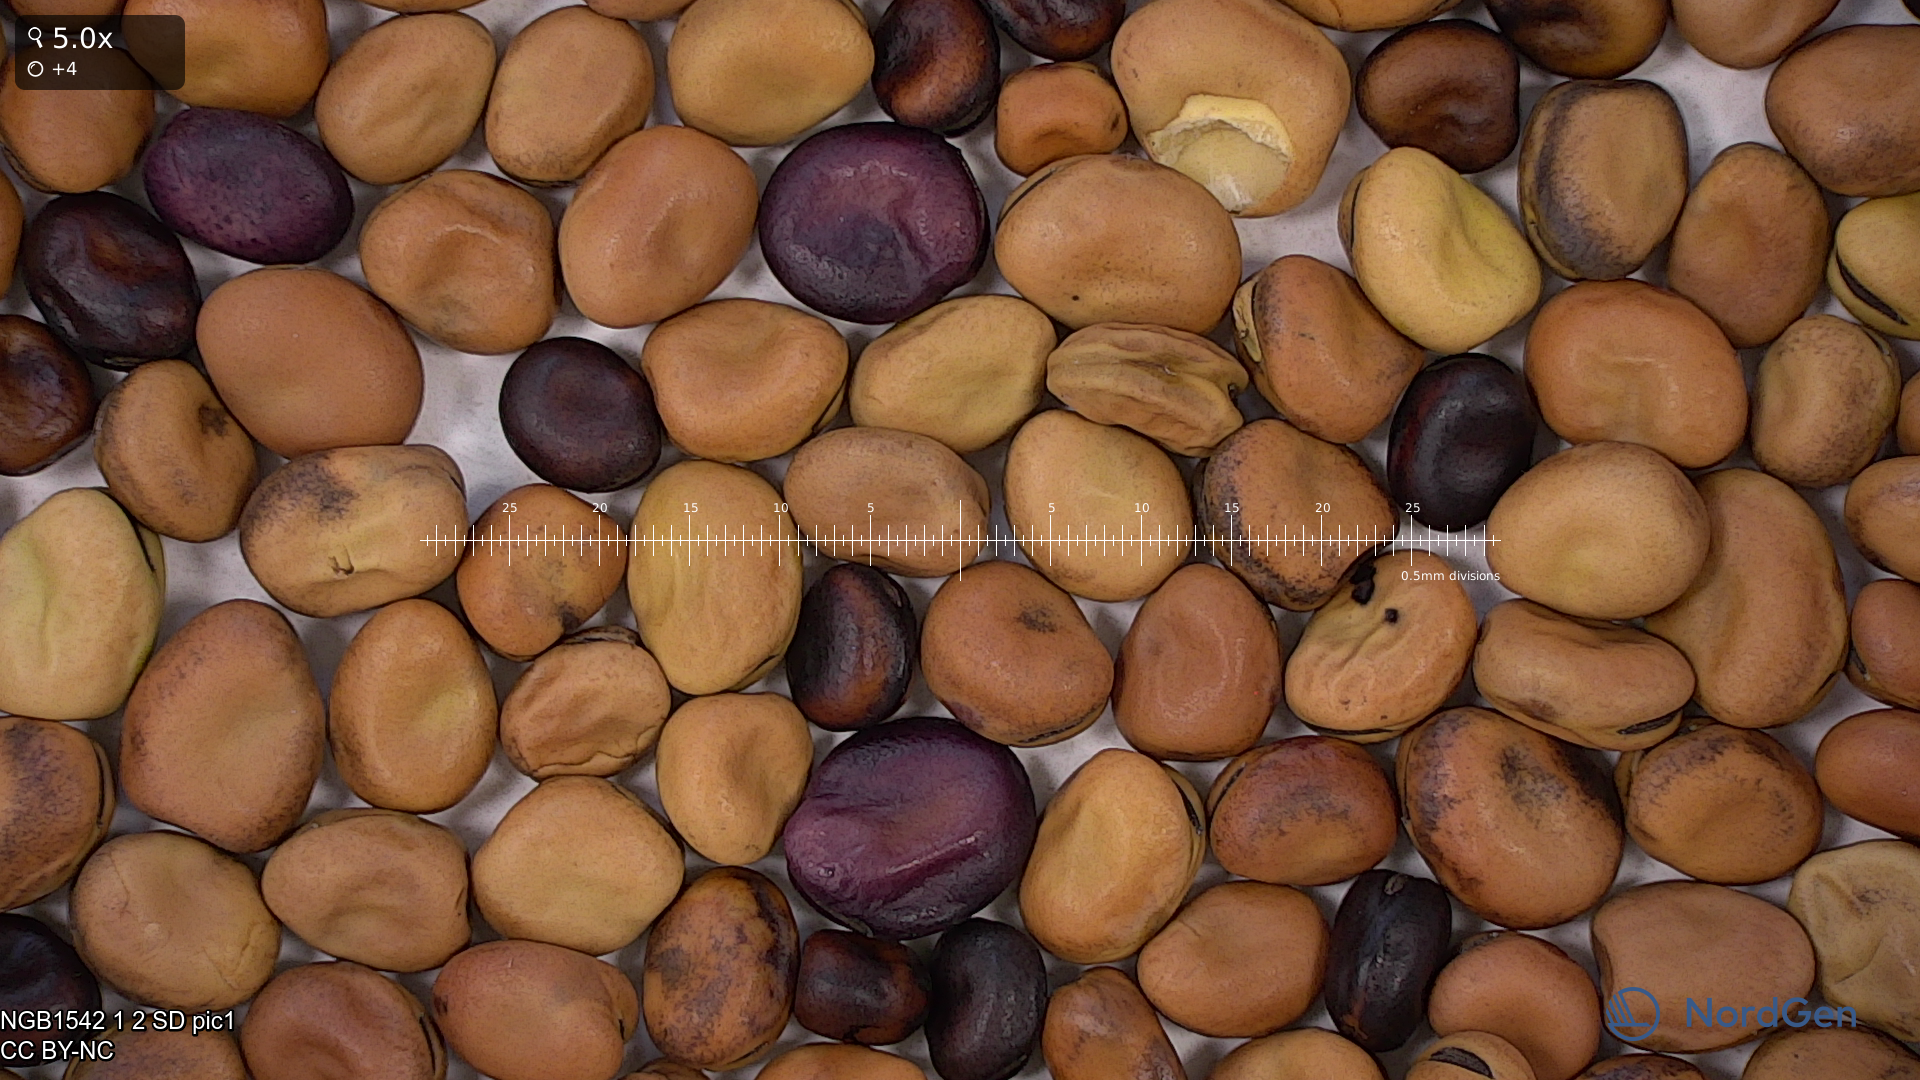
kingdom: Plantae
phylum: Tracheophyta
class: Magnoliopsida
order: Fabales
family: Fabaceae
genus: Vicia
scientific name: Vicia faba
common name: Broad bean
